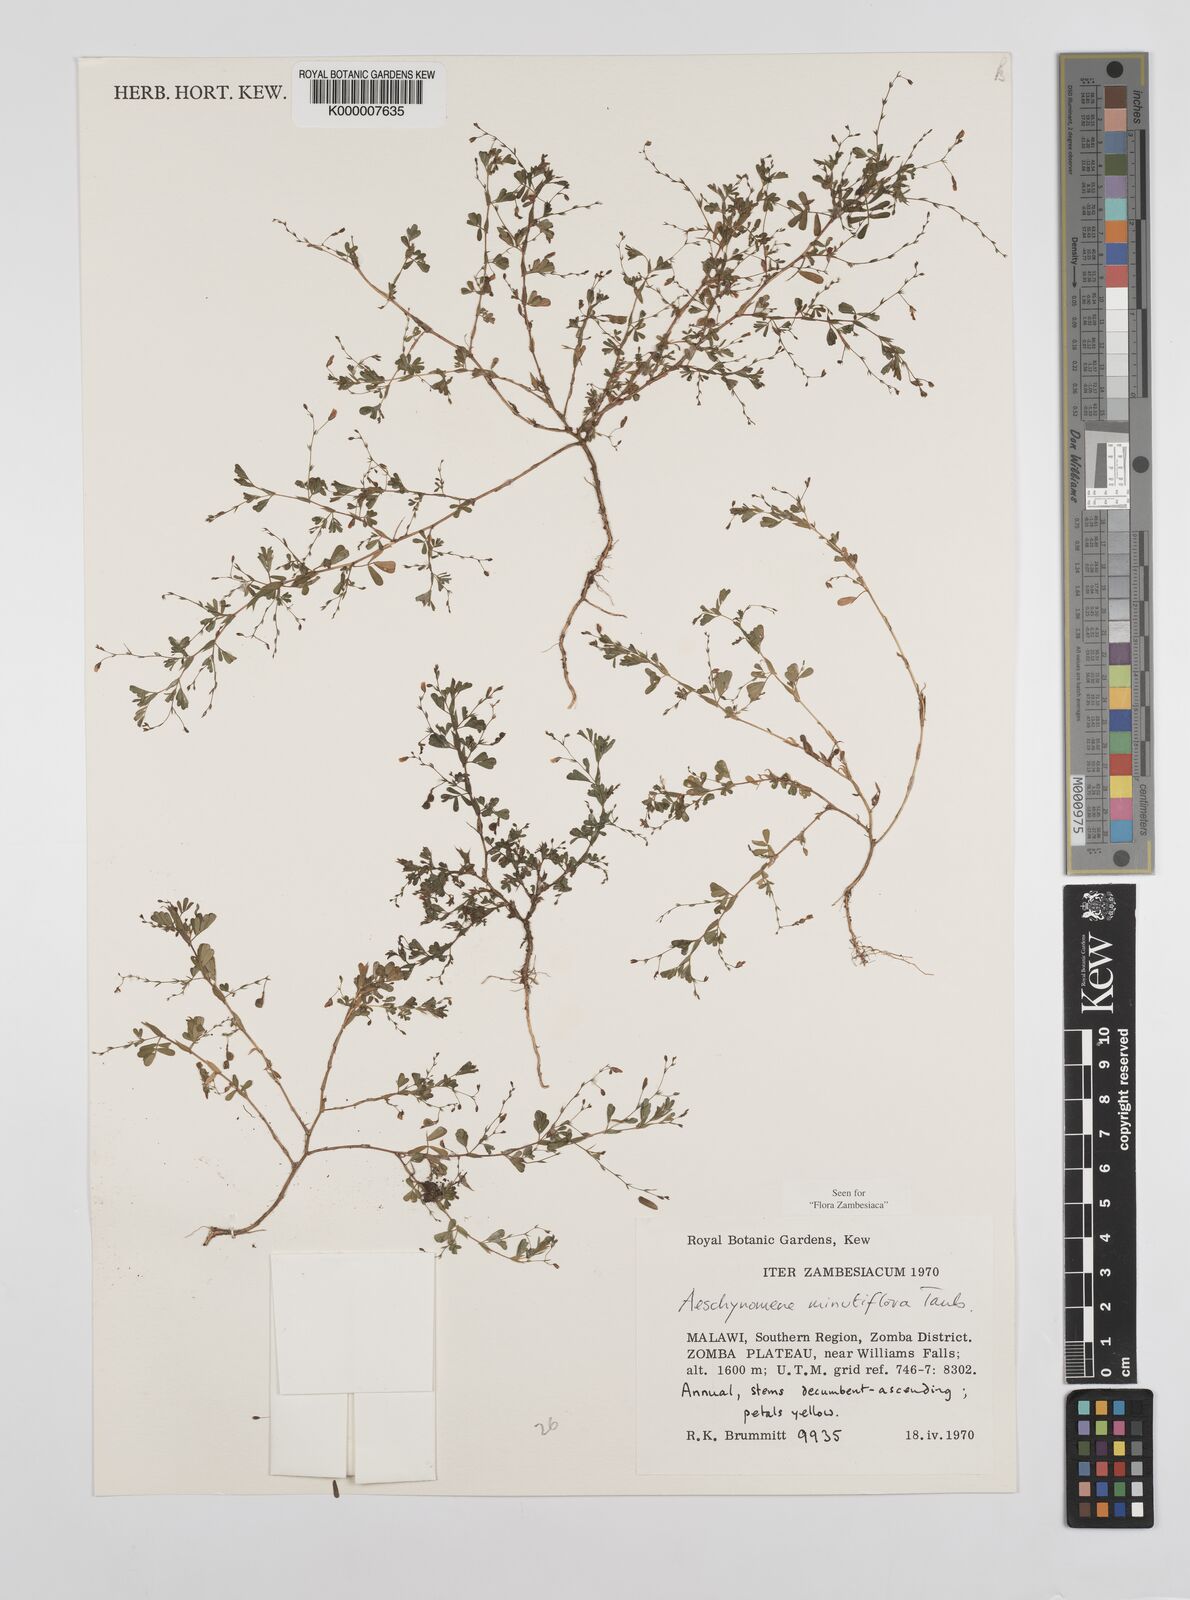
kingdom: Plantae
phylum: Tracheophyta
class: Magnoliopsida
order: Fabales
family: Fabaceae
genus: Aeschynomene
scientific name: Aeschynomene minutiflora
